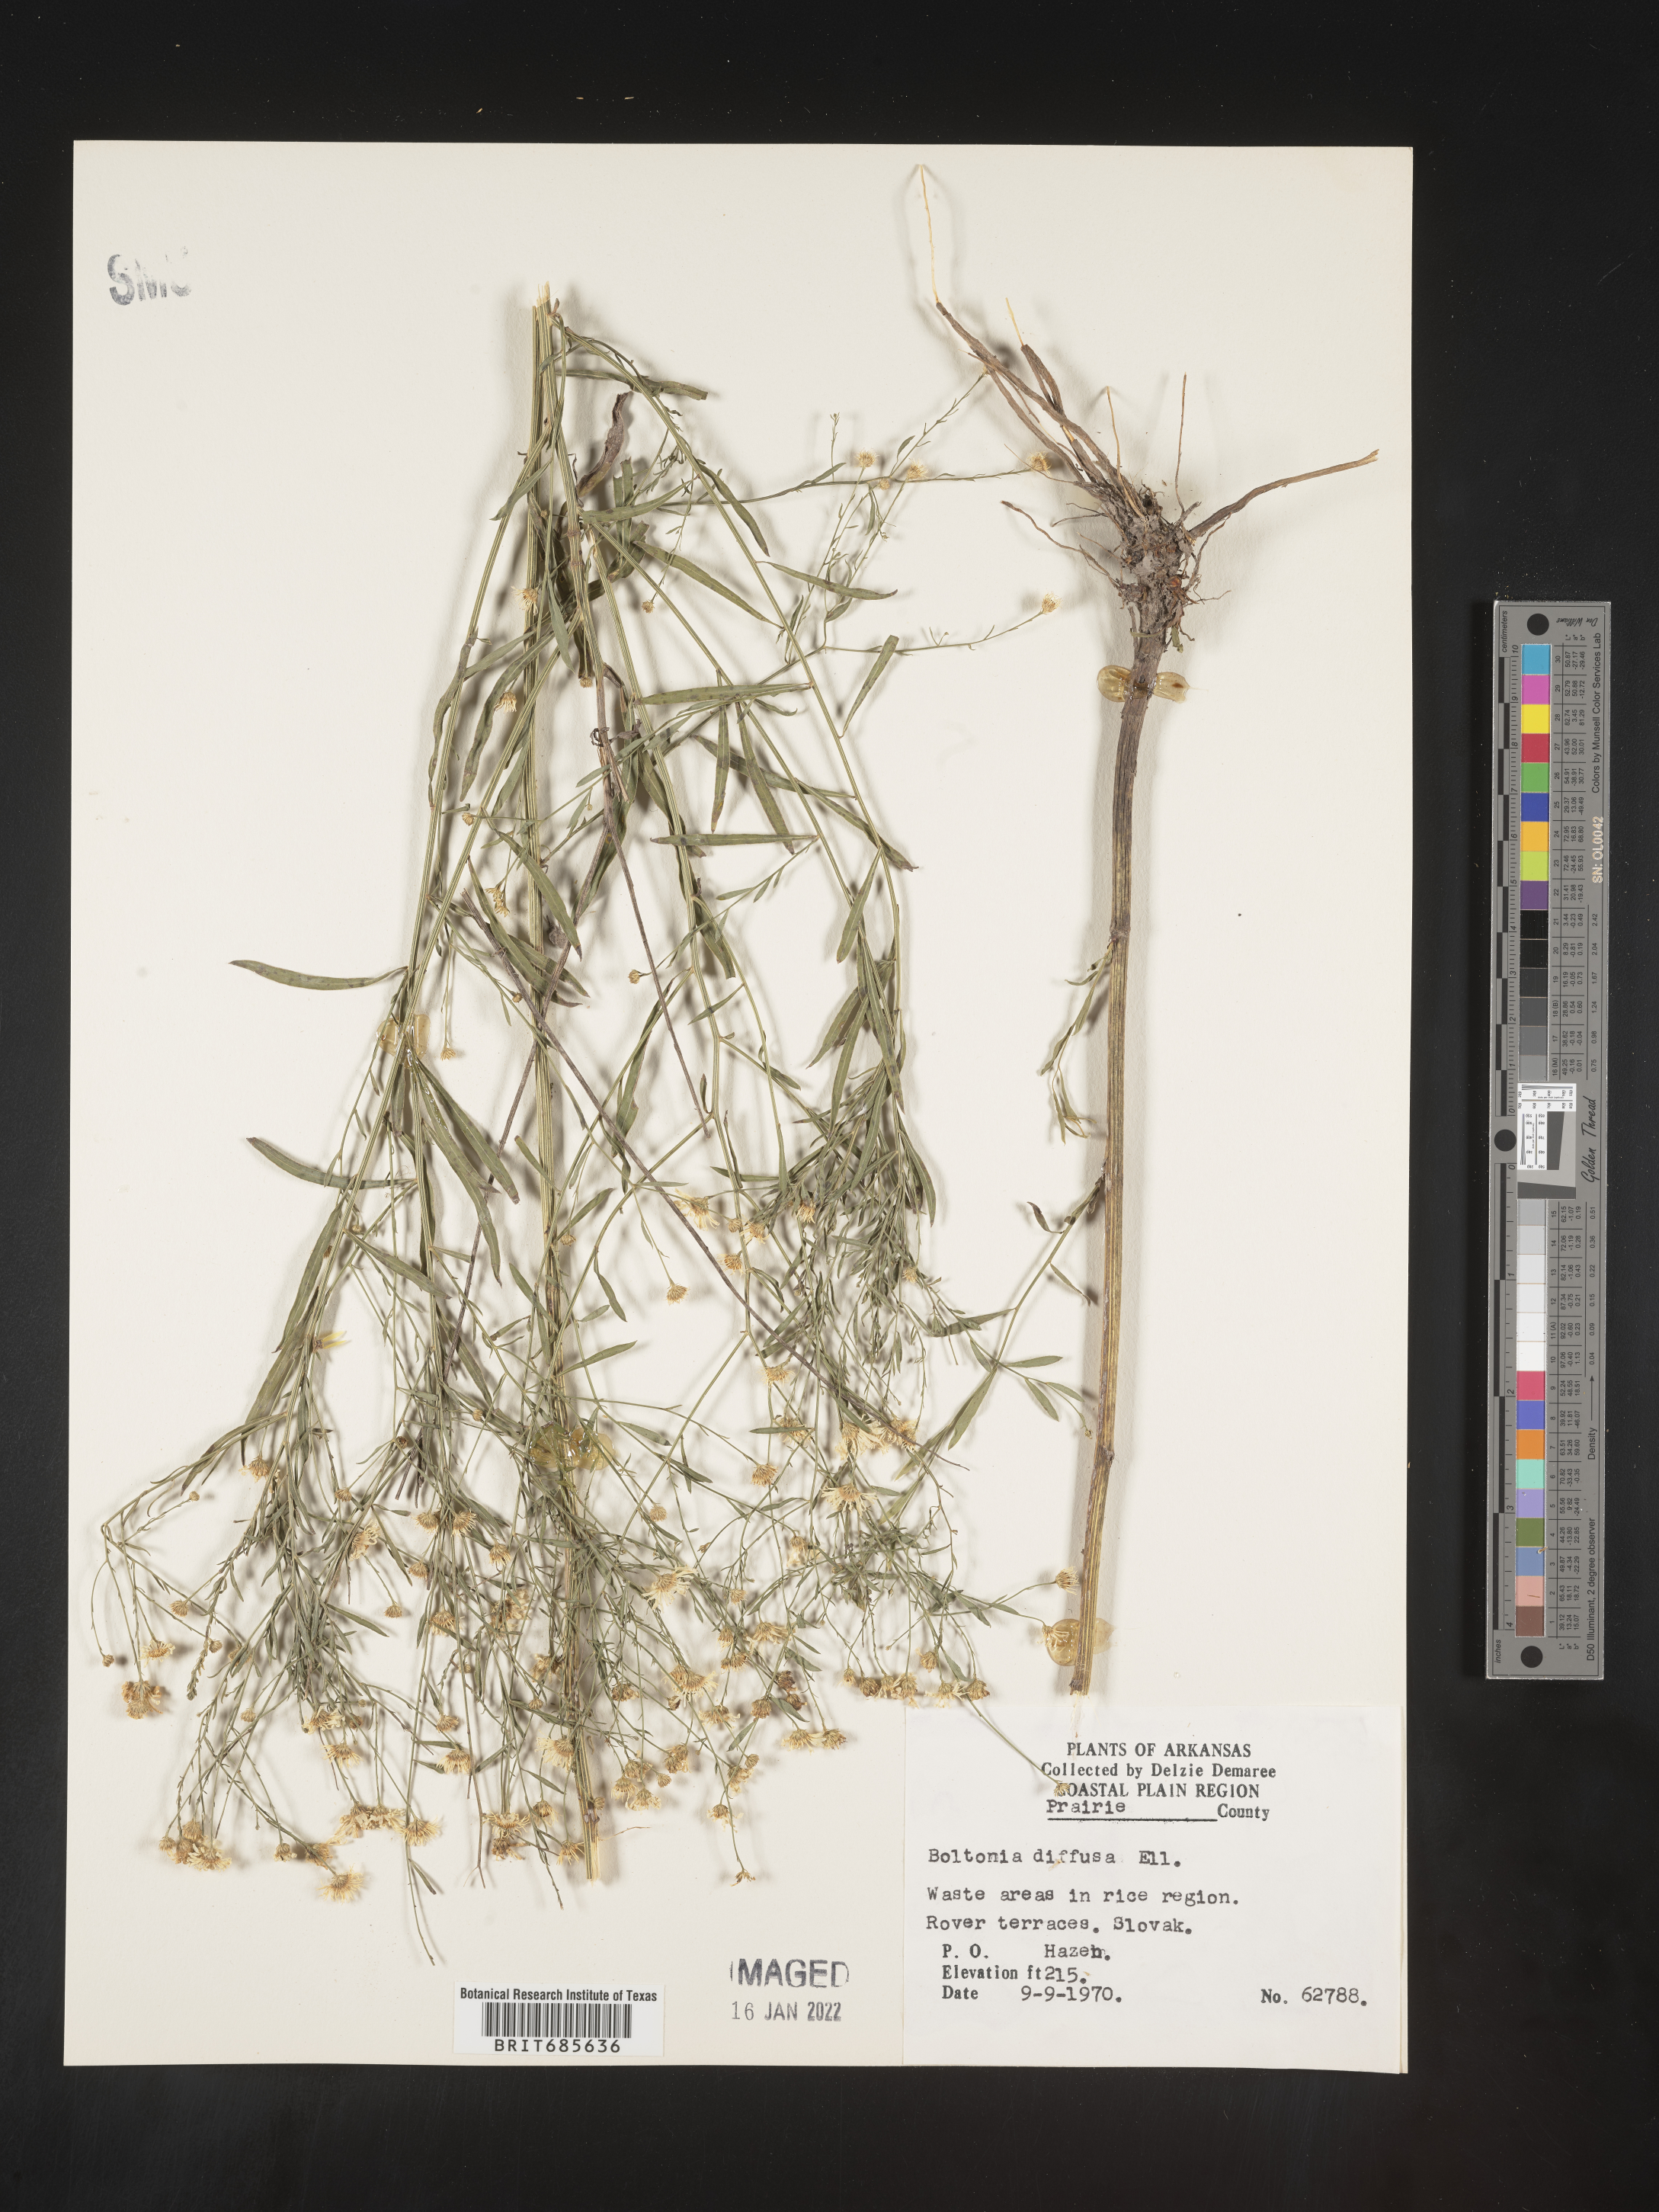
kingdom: Plantae
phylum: Tracheophyta
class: Magnoliopsida
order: Asterales
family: Asteraceae
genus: Boltonia
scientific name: Boltonia diffusa
